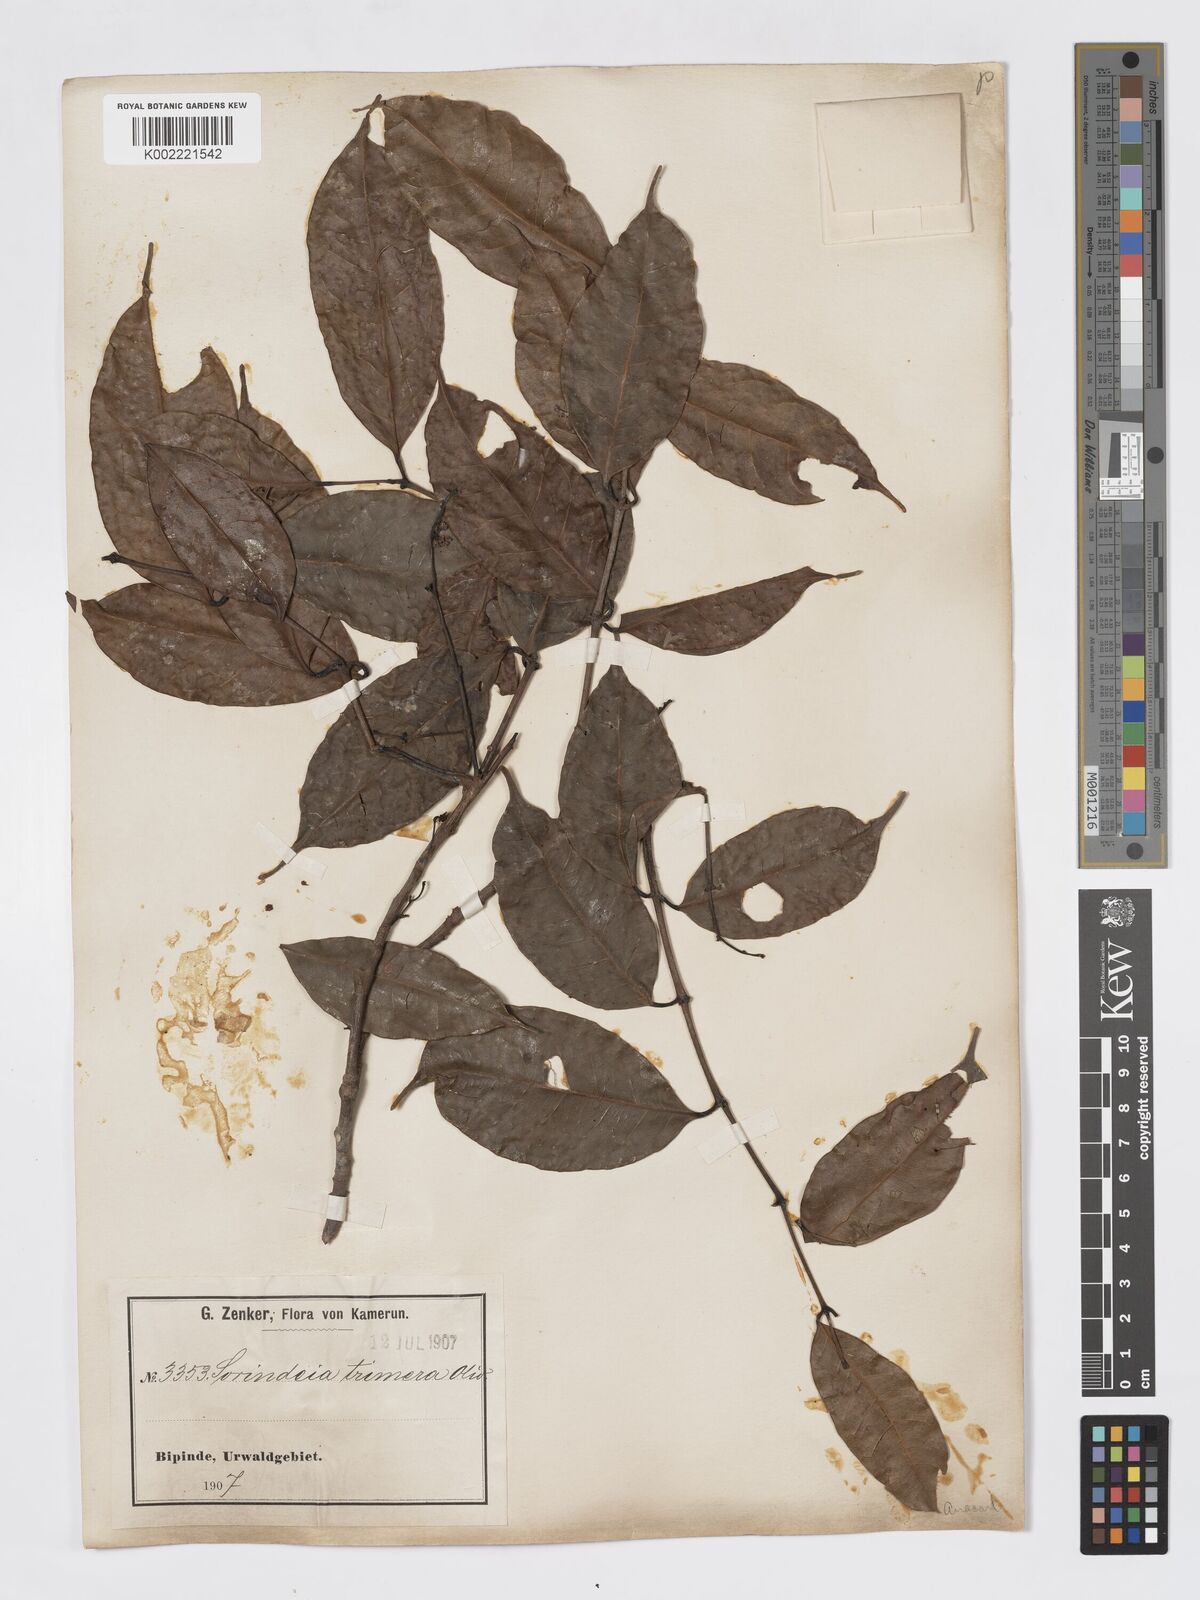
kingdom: Plantae
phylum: Tracheophyta
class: Magnoliopsida
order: Sapindales
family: Burseraceae
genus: Pachylobus
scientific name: Pachylobus trimerus
